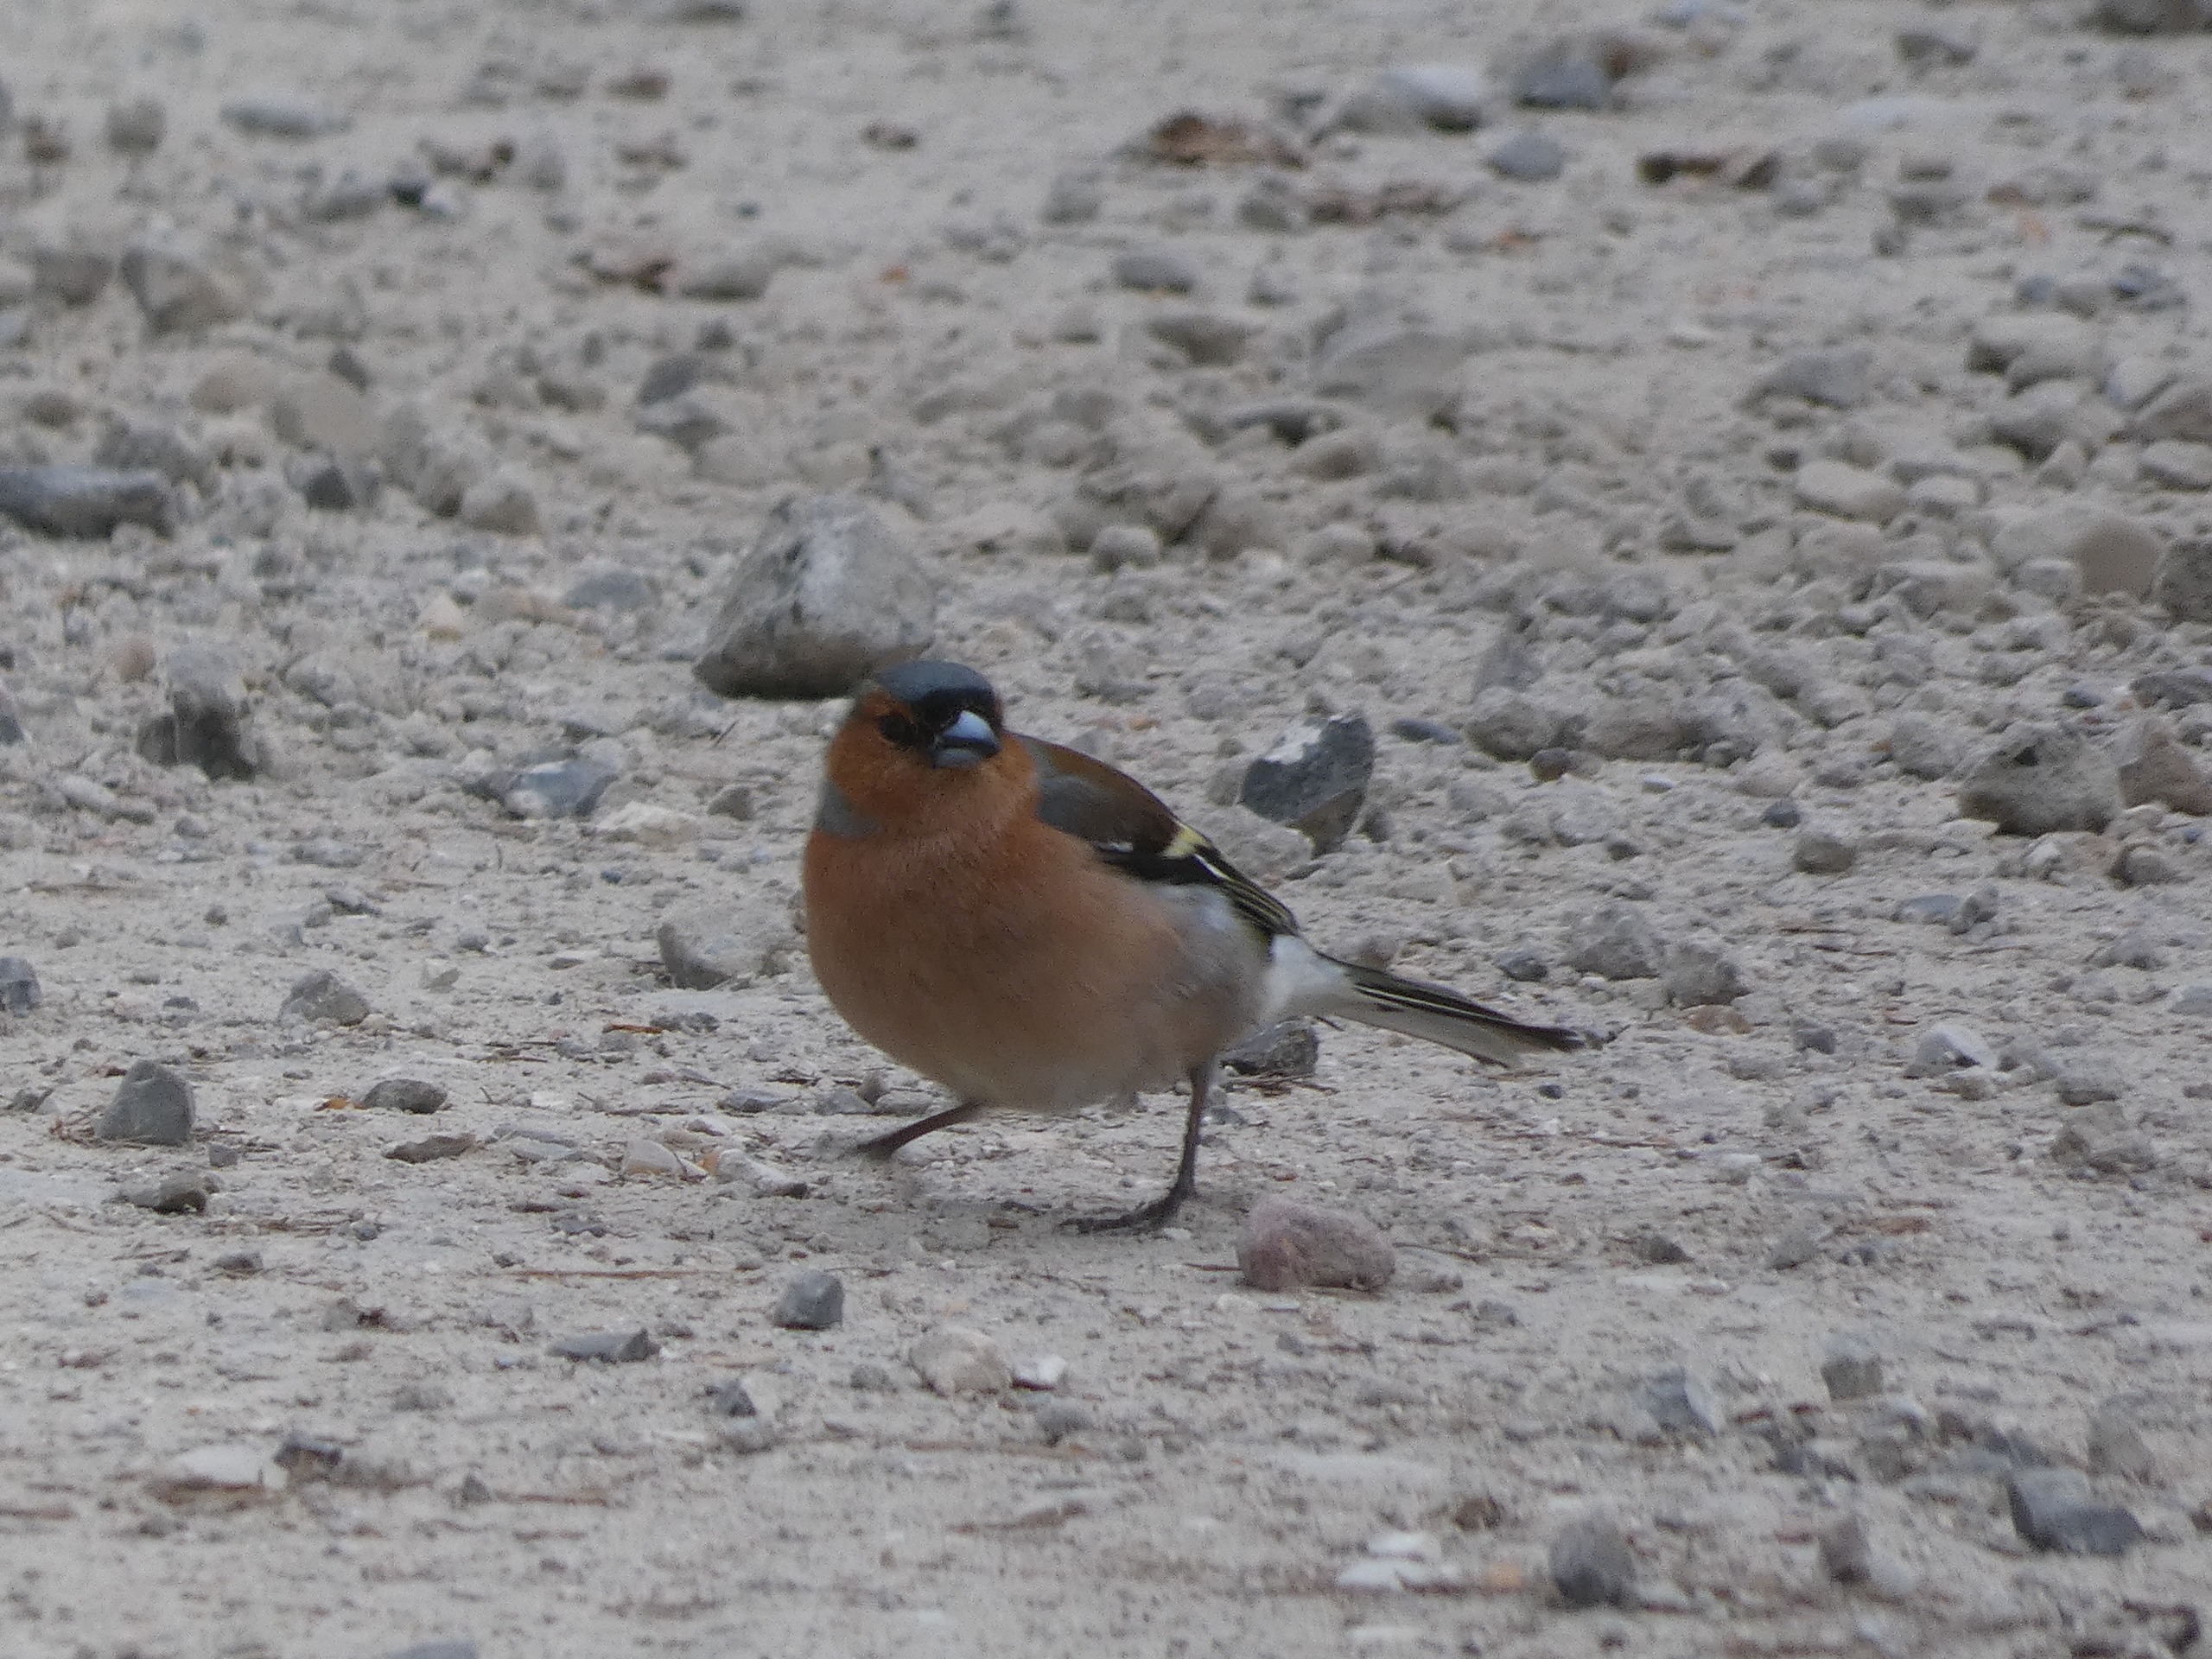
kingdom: Animalia
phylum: Chordata
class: Aves
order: Passeriformes
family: Fringillidae
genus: Fringilla
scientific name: Fringilla coelebs
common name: Bogfinke
